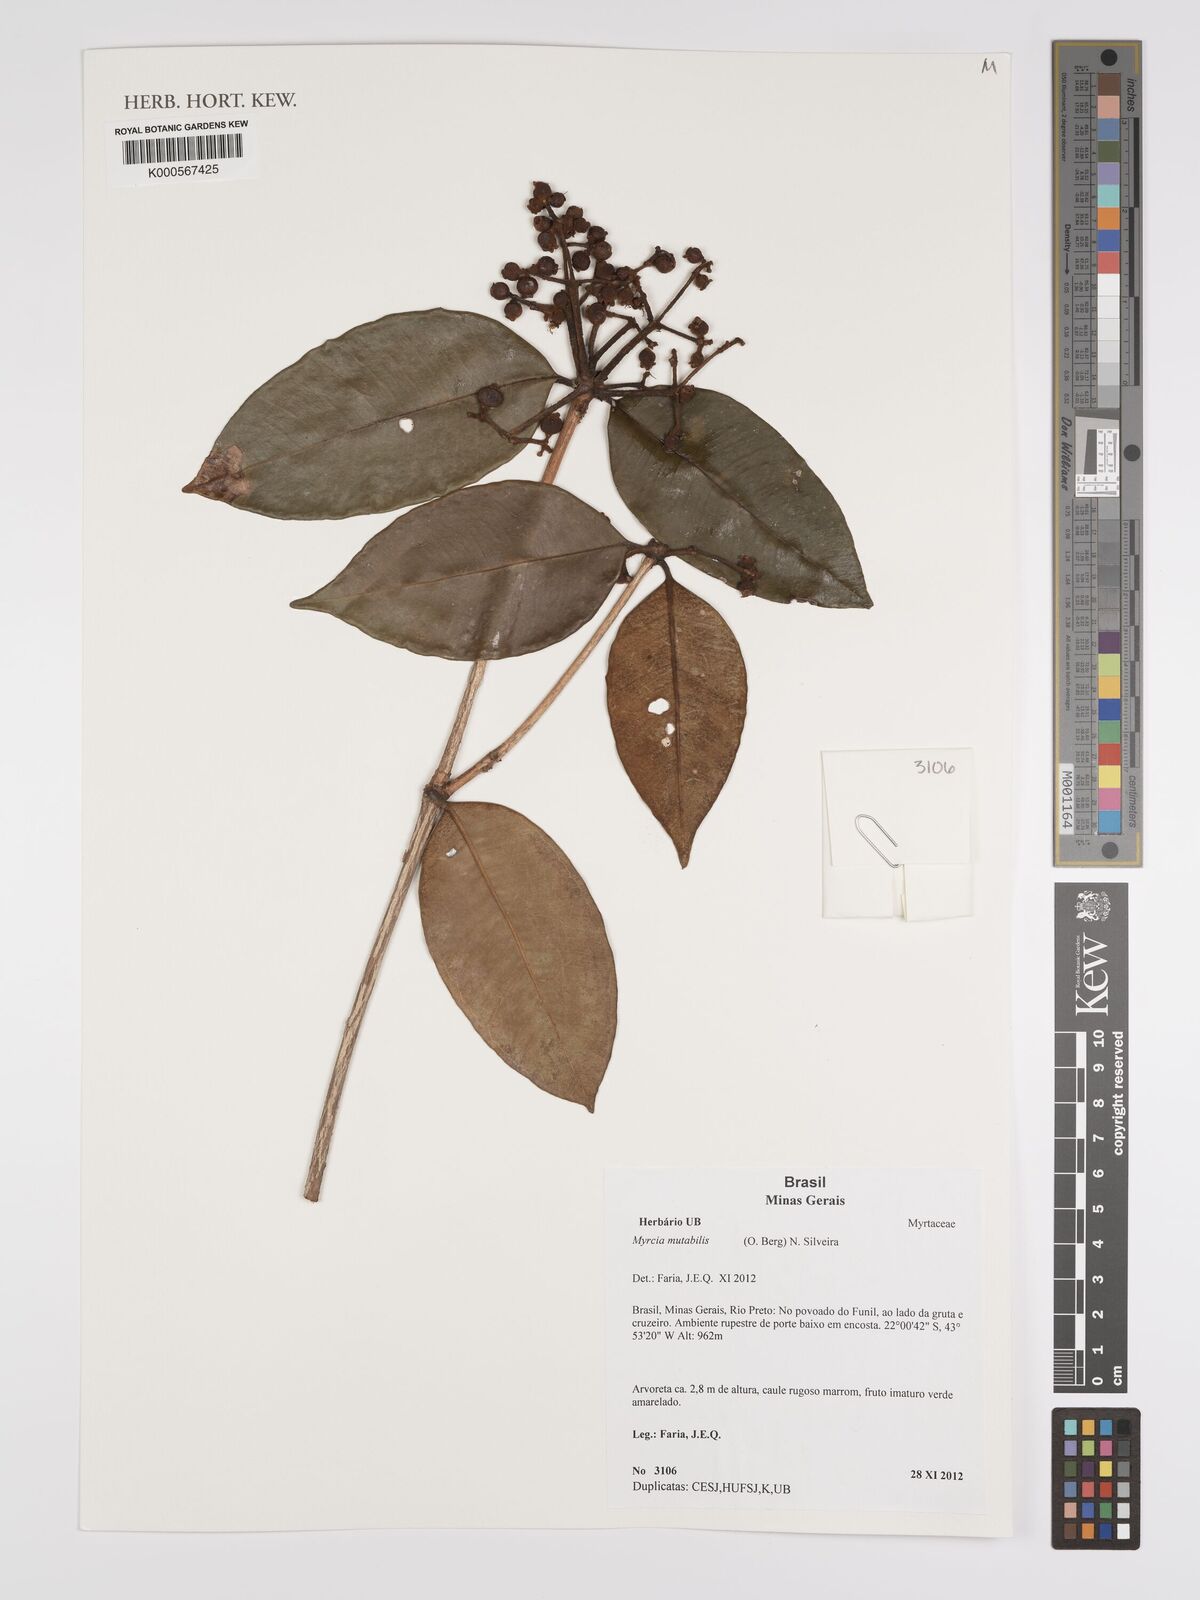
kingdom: Plantae
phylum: Tracheophyta
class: Magnoliopsida
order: Myrtales
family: Myrtaceae
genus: Myrcia
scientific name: Myrcia mutabilis
